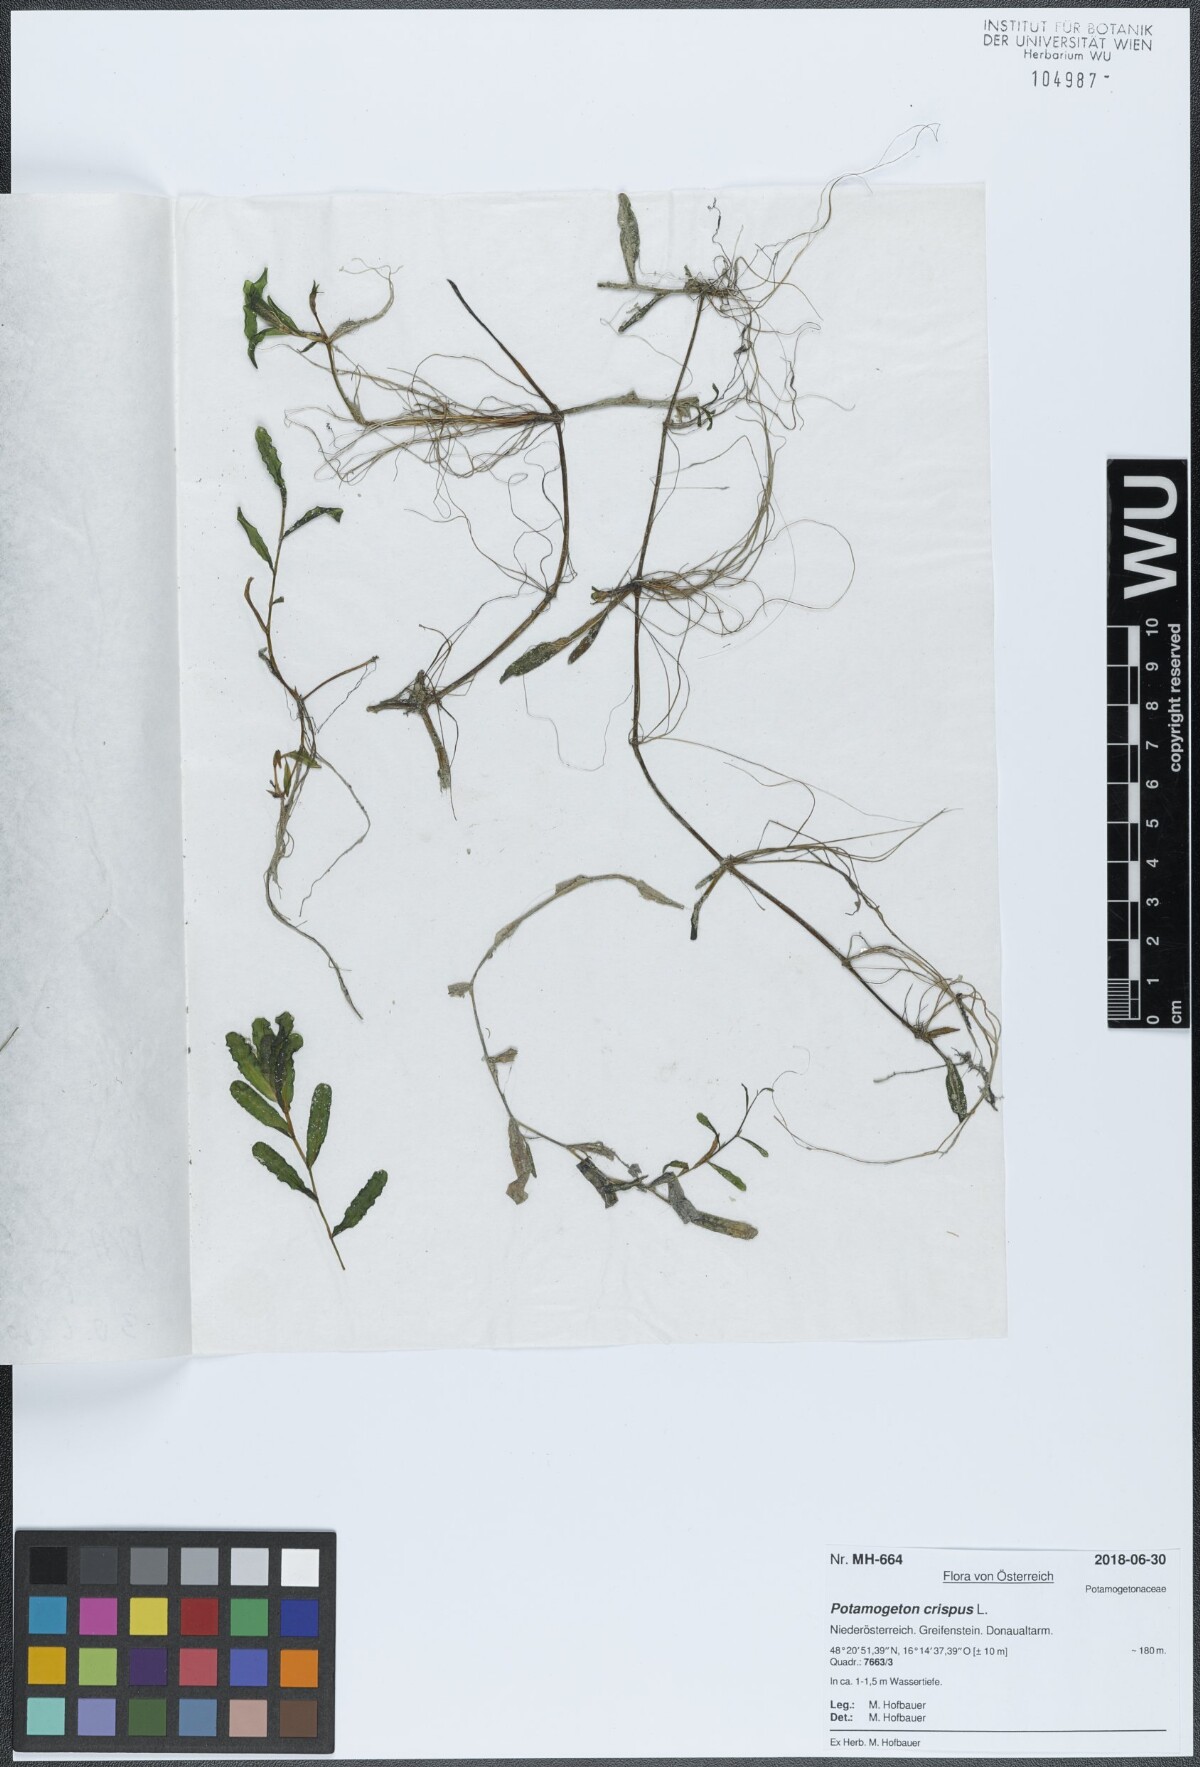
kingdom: Plantae
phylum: Tracheophyta
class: Liliopsida
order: Alismatales
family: Potamogetonaceae
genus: Potamogeton
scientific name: Potamogeton crispus
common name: Curled pondweed
